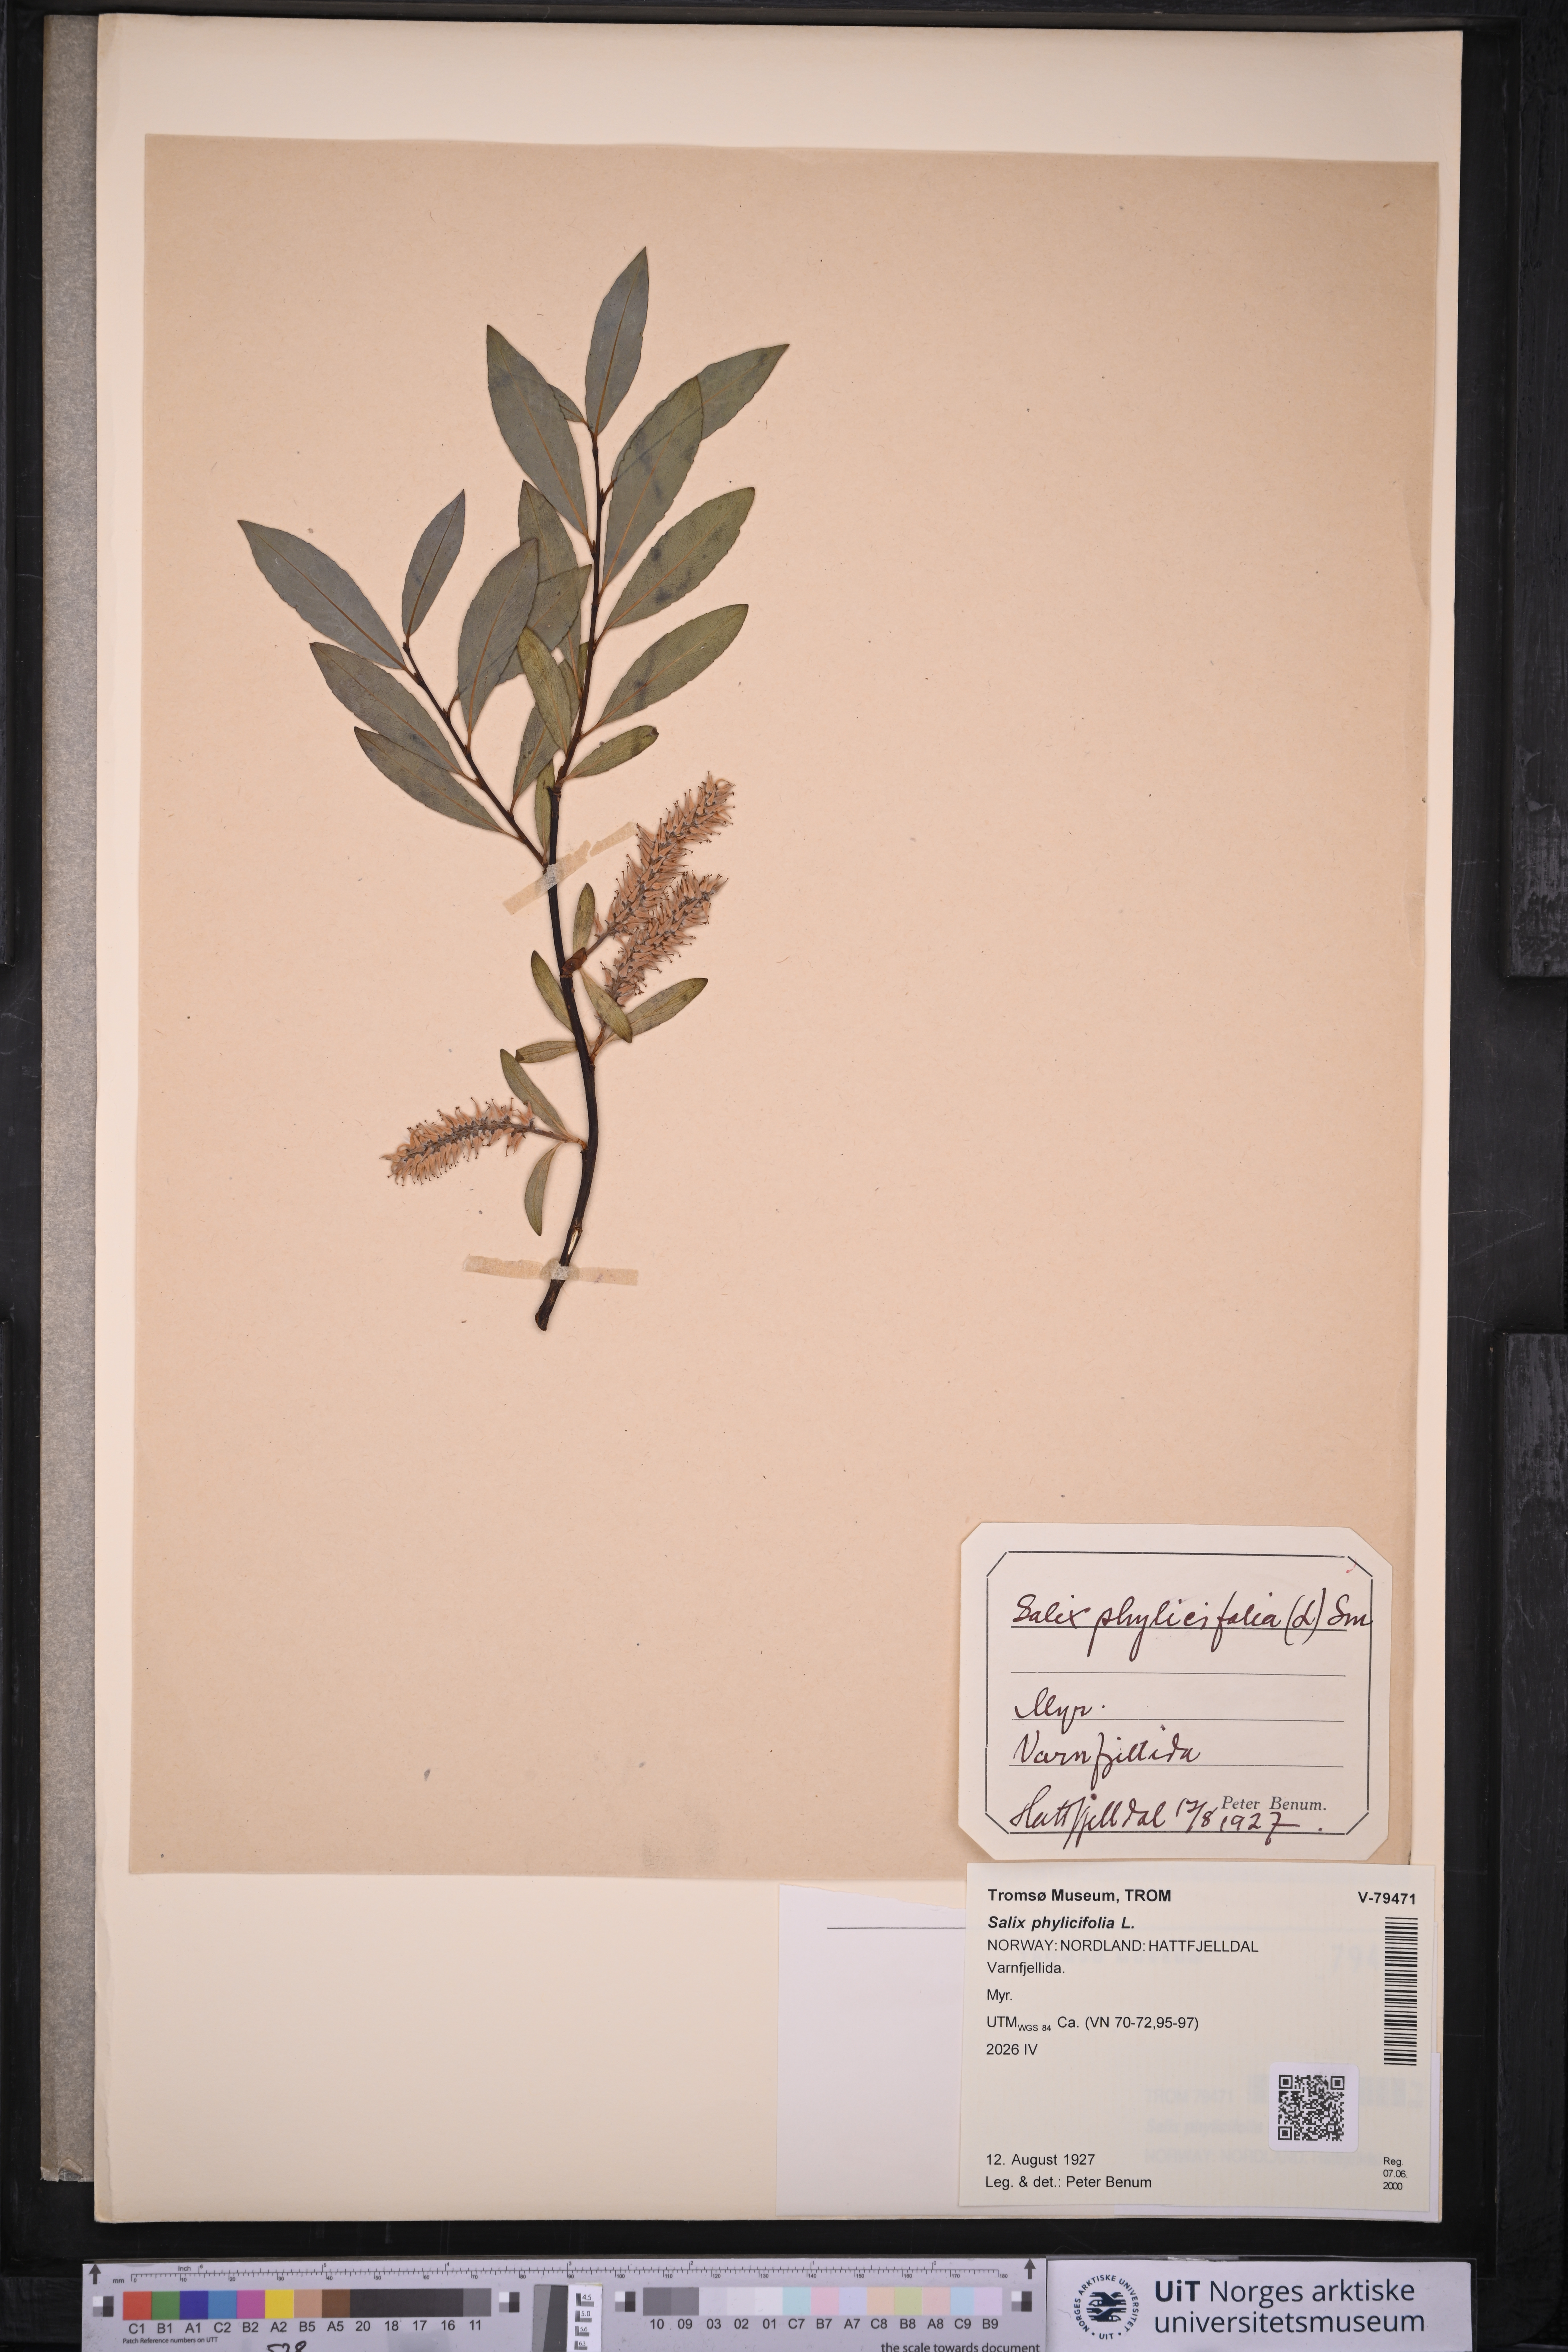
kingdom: Plantae
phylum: Tracheophyta
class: Magnoliopsida
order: Malpighiales
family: Salicaceae
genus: Salix
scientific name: Salix phylicifolia
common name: Tea-leaved willow
